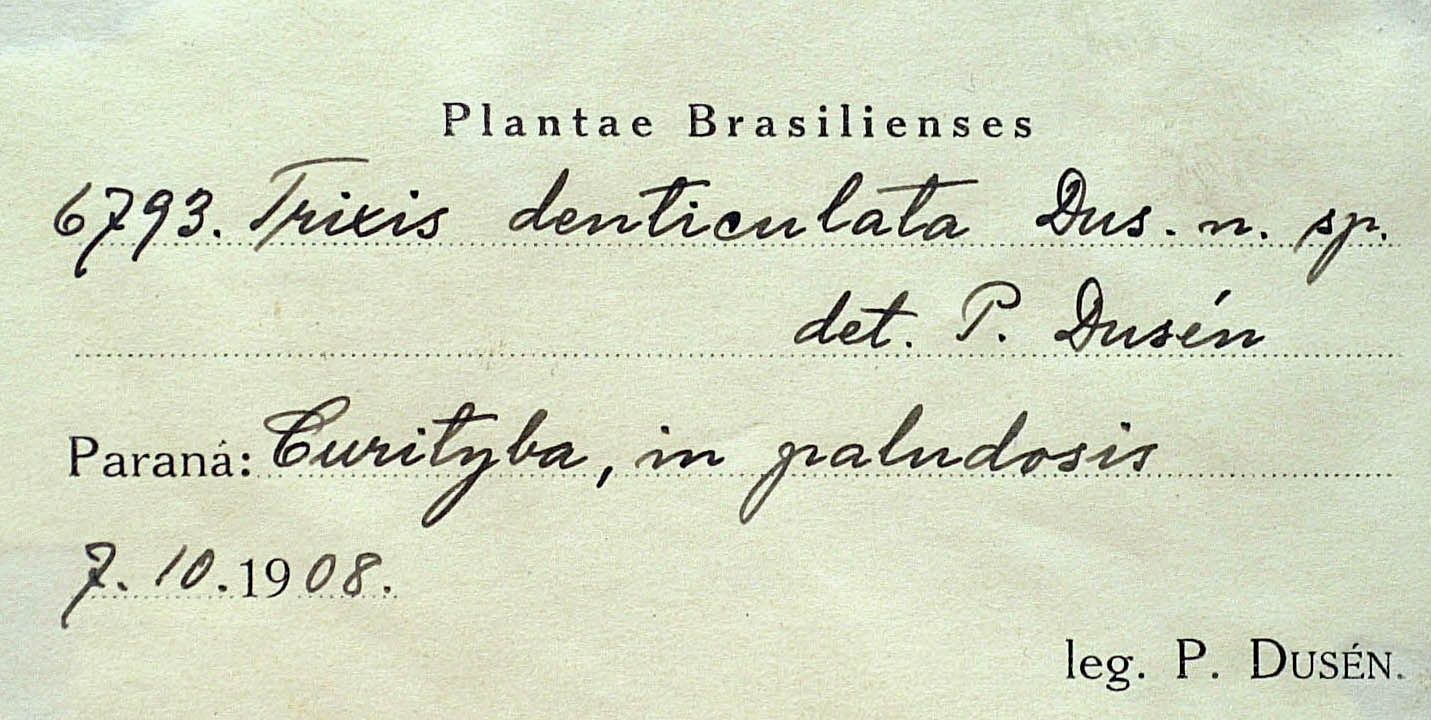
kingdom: Plantae
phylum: Tracheophyta
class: Magnoliopsida
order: Asterales
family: Asteraceae
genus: Holocheilus
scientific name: Holocheilus illustris
